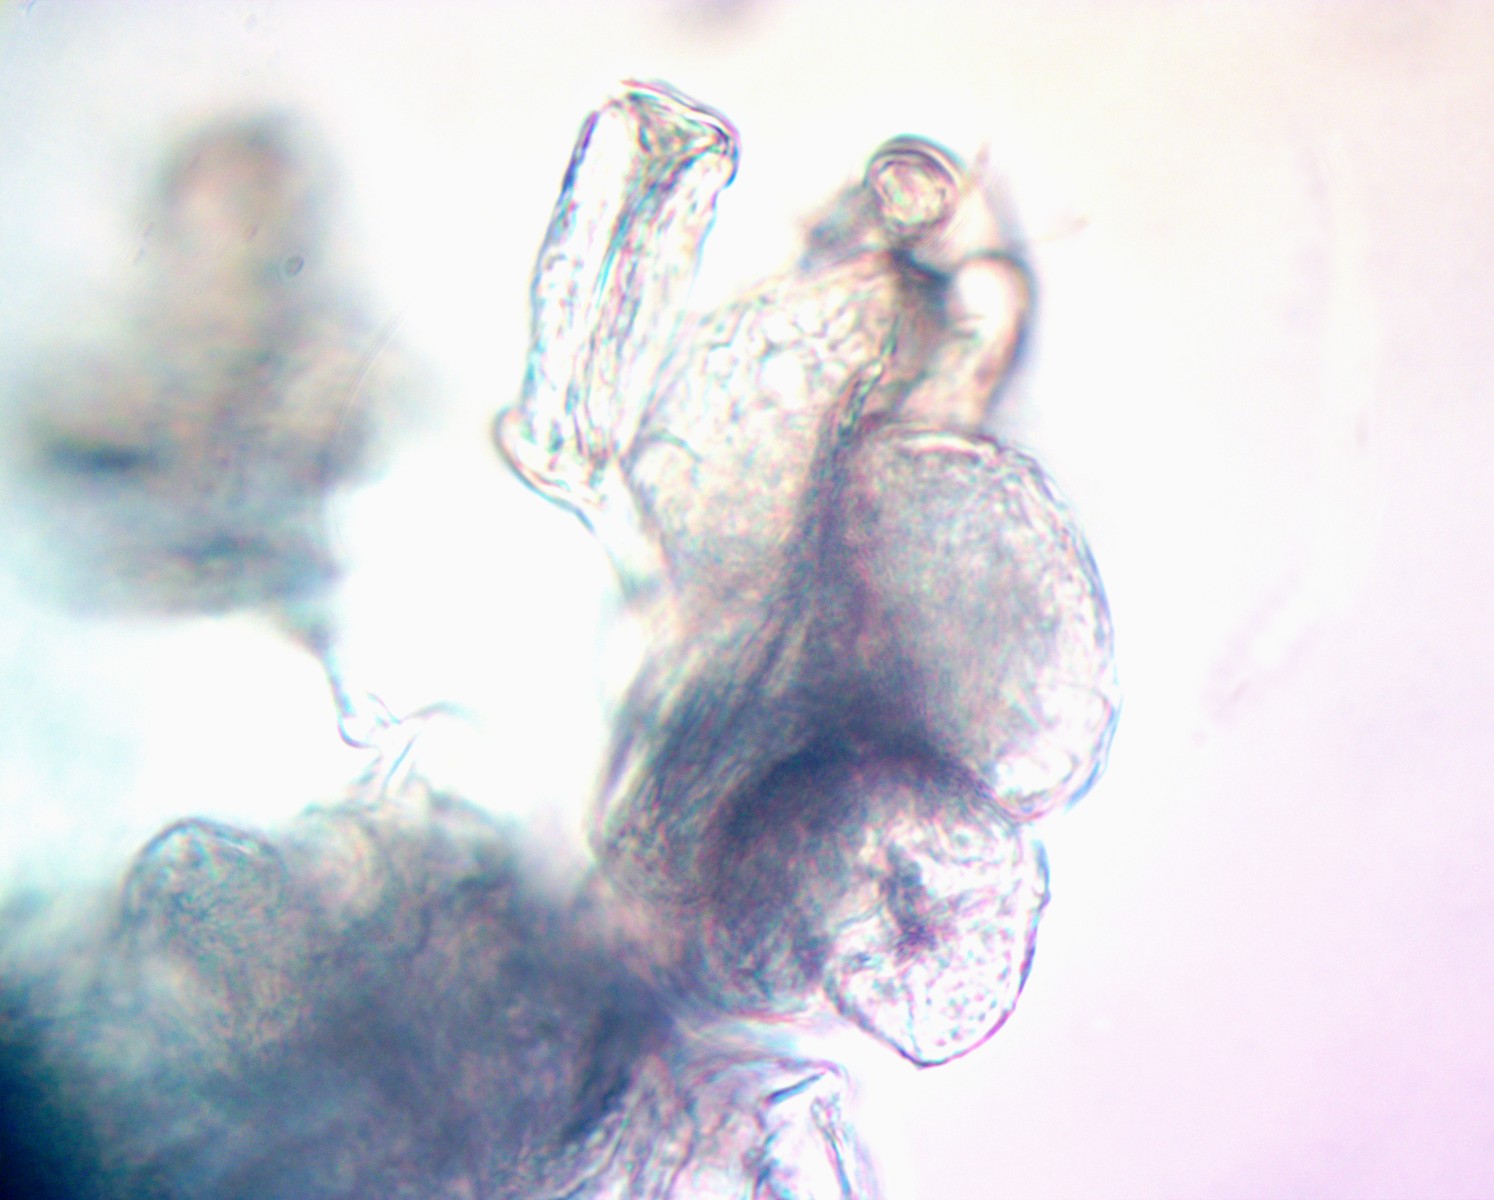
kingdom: Fungi
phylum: Ascomycota
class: Leotiomycetes
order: Helotiales
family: Erysiphaceae
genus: Golovinomyces
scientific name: Golovinomyces asperifolii
